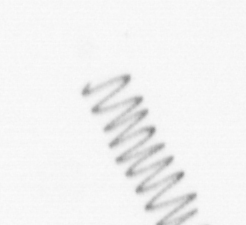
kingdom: Chromista
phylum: Ochrophyta
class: Bacillariophyceae
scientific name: Bacillariophyceae
